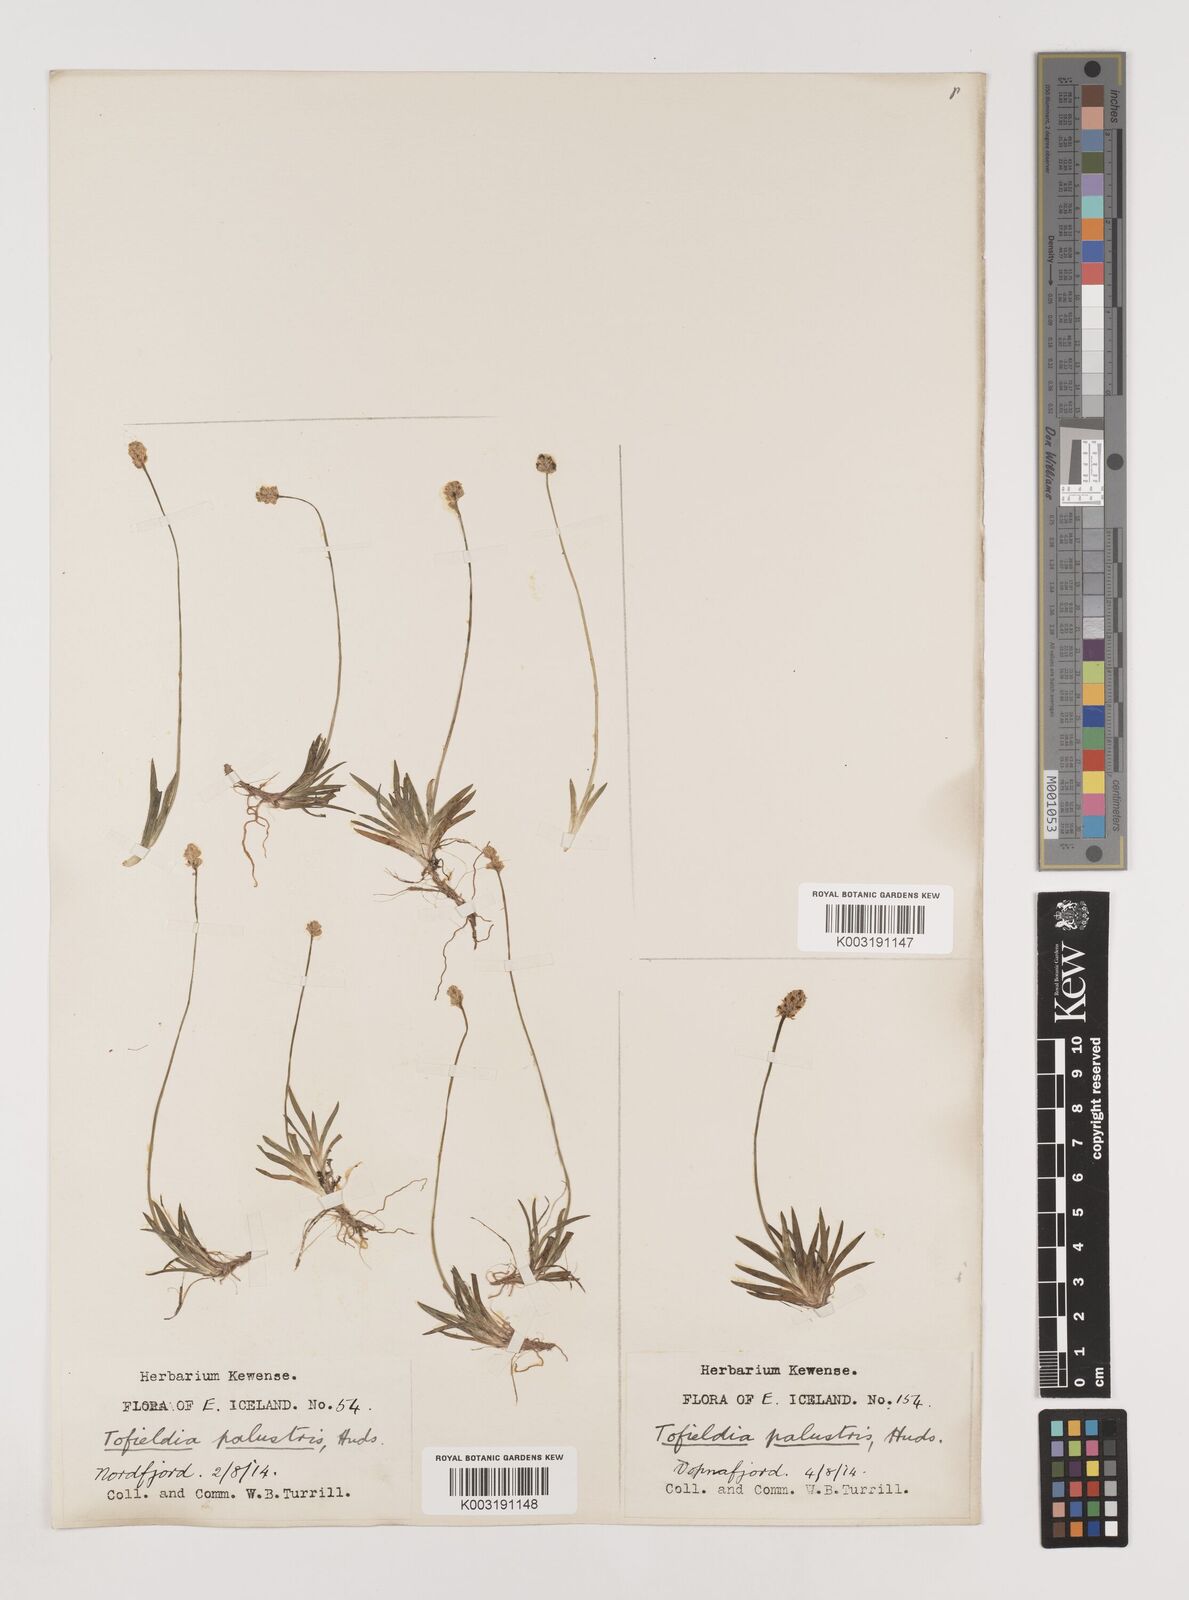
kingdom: Plantae
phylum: Tracheophyta
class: Liliopsida
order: Alismatales
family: Tofieldiaceae
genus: Tofieldia
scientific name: Tofieldia pusilla
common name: Scottish false asphodel
